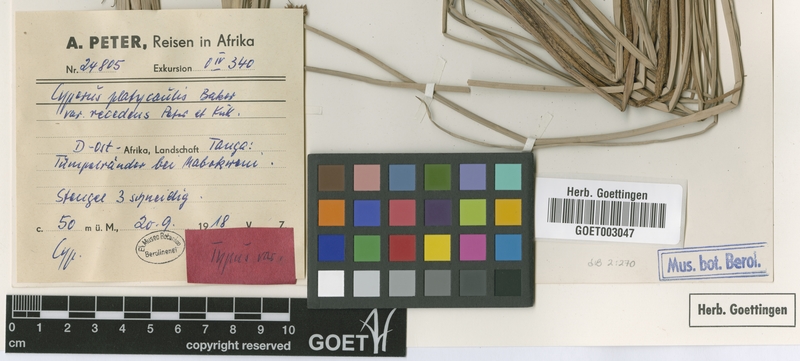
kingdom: Plantae
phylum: Tracheophyta
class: Liliopsida
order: Poales
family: Cyperaceae
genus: Cyperus
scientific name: Cyperus denudatus
